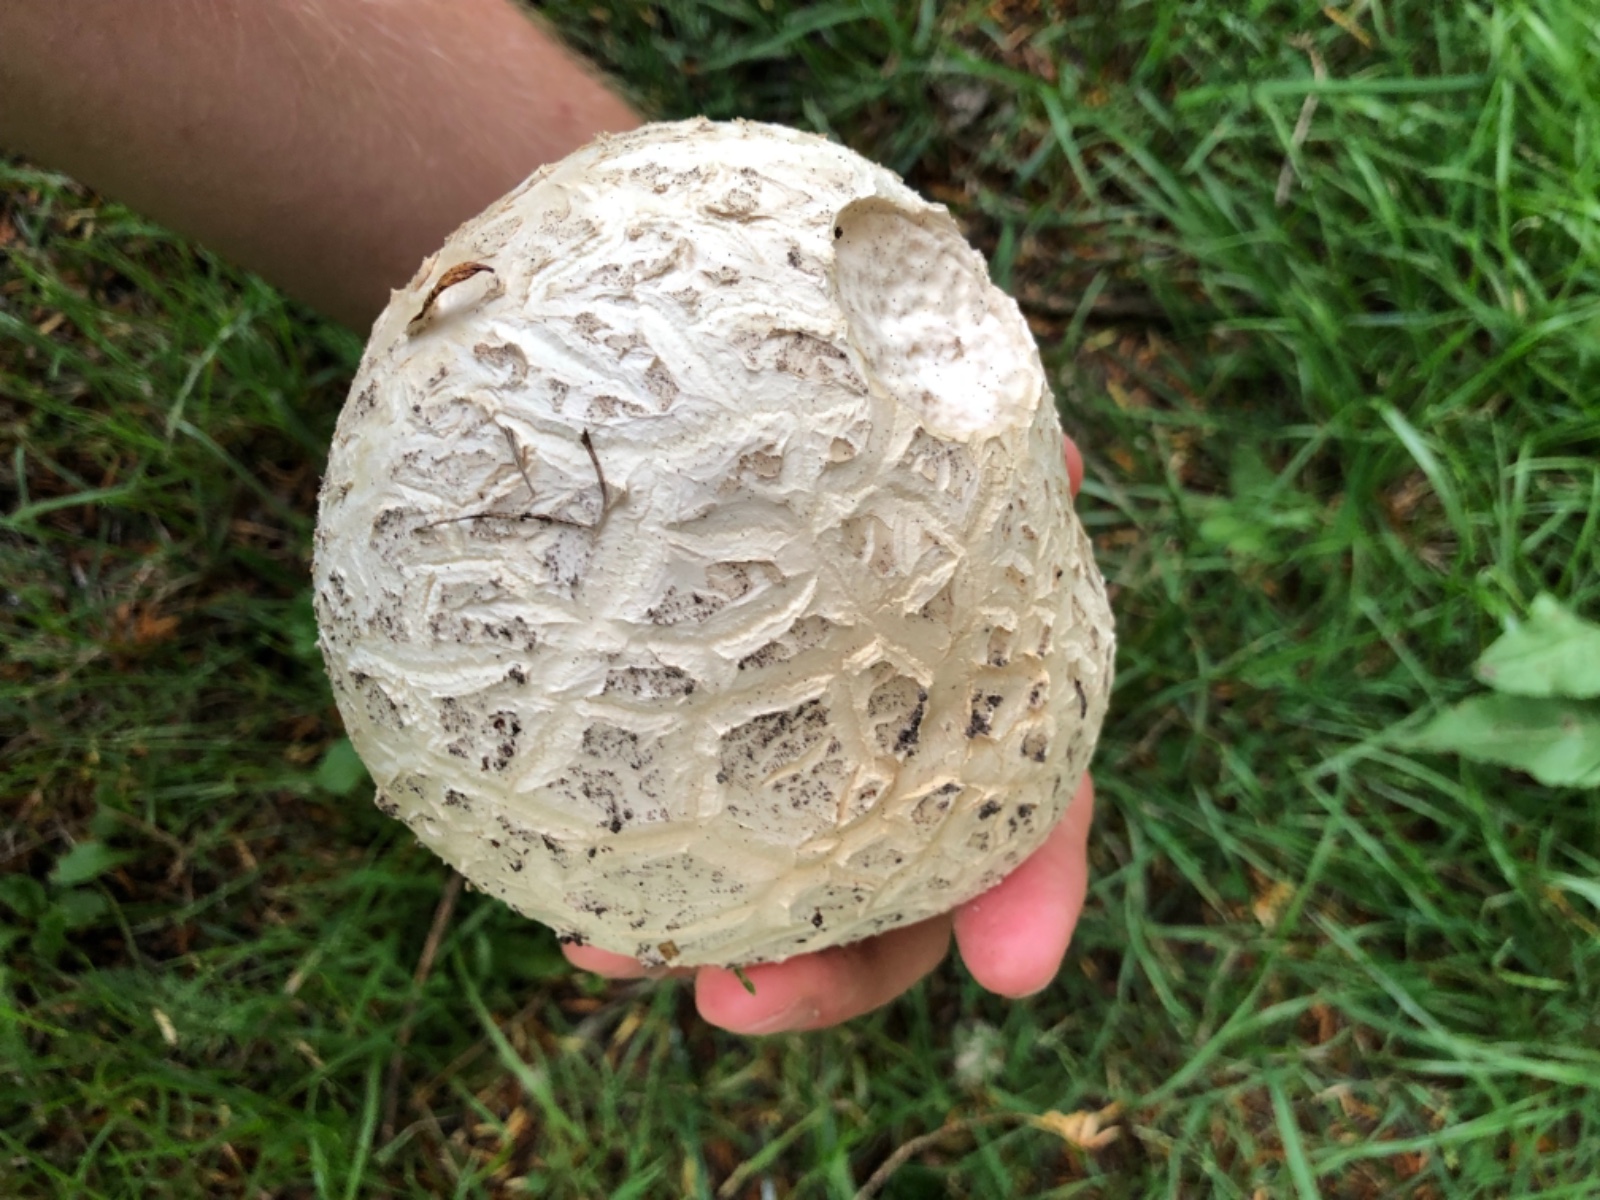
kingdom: Fungi
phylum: Basidiomycota
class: Agaricomycetes
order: Agaricales
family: Agaricaceae
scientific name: Agaricaceae
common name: champignonfamilien
